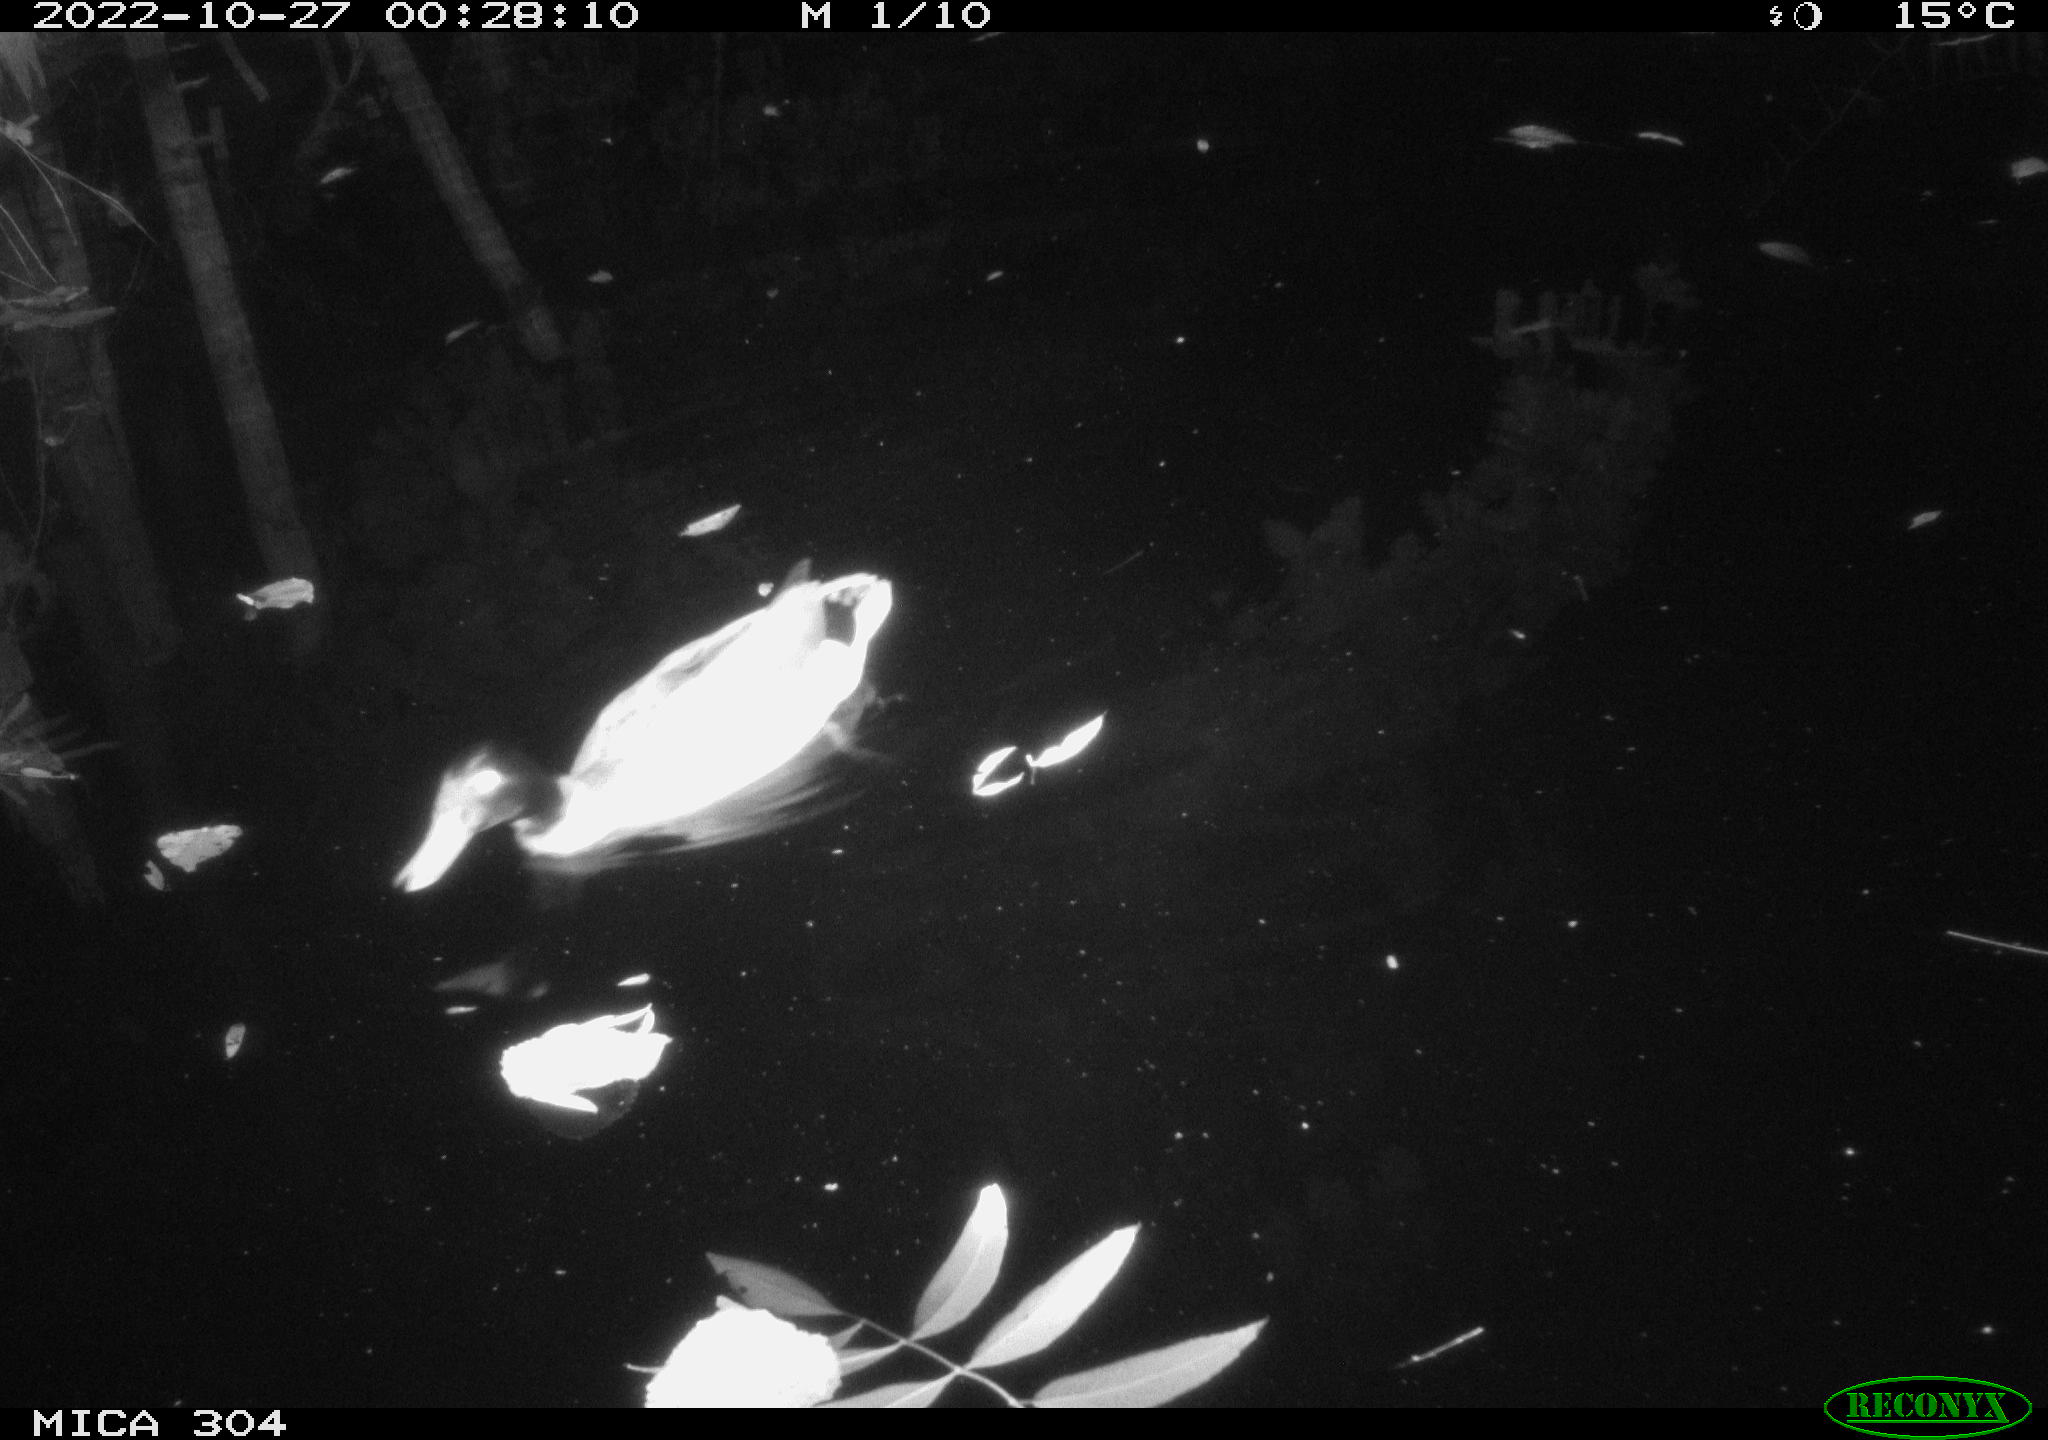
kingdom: Animalia
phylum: Chordata
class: Aves
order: Anseriformes
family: Anatidae
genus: Anas
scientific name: Anas
